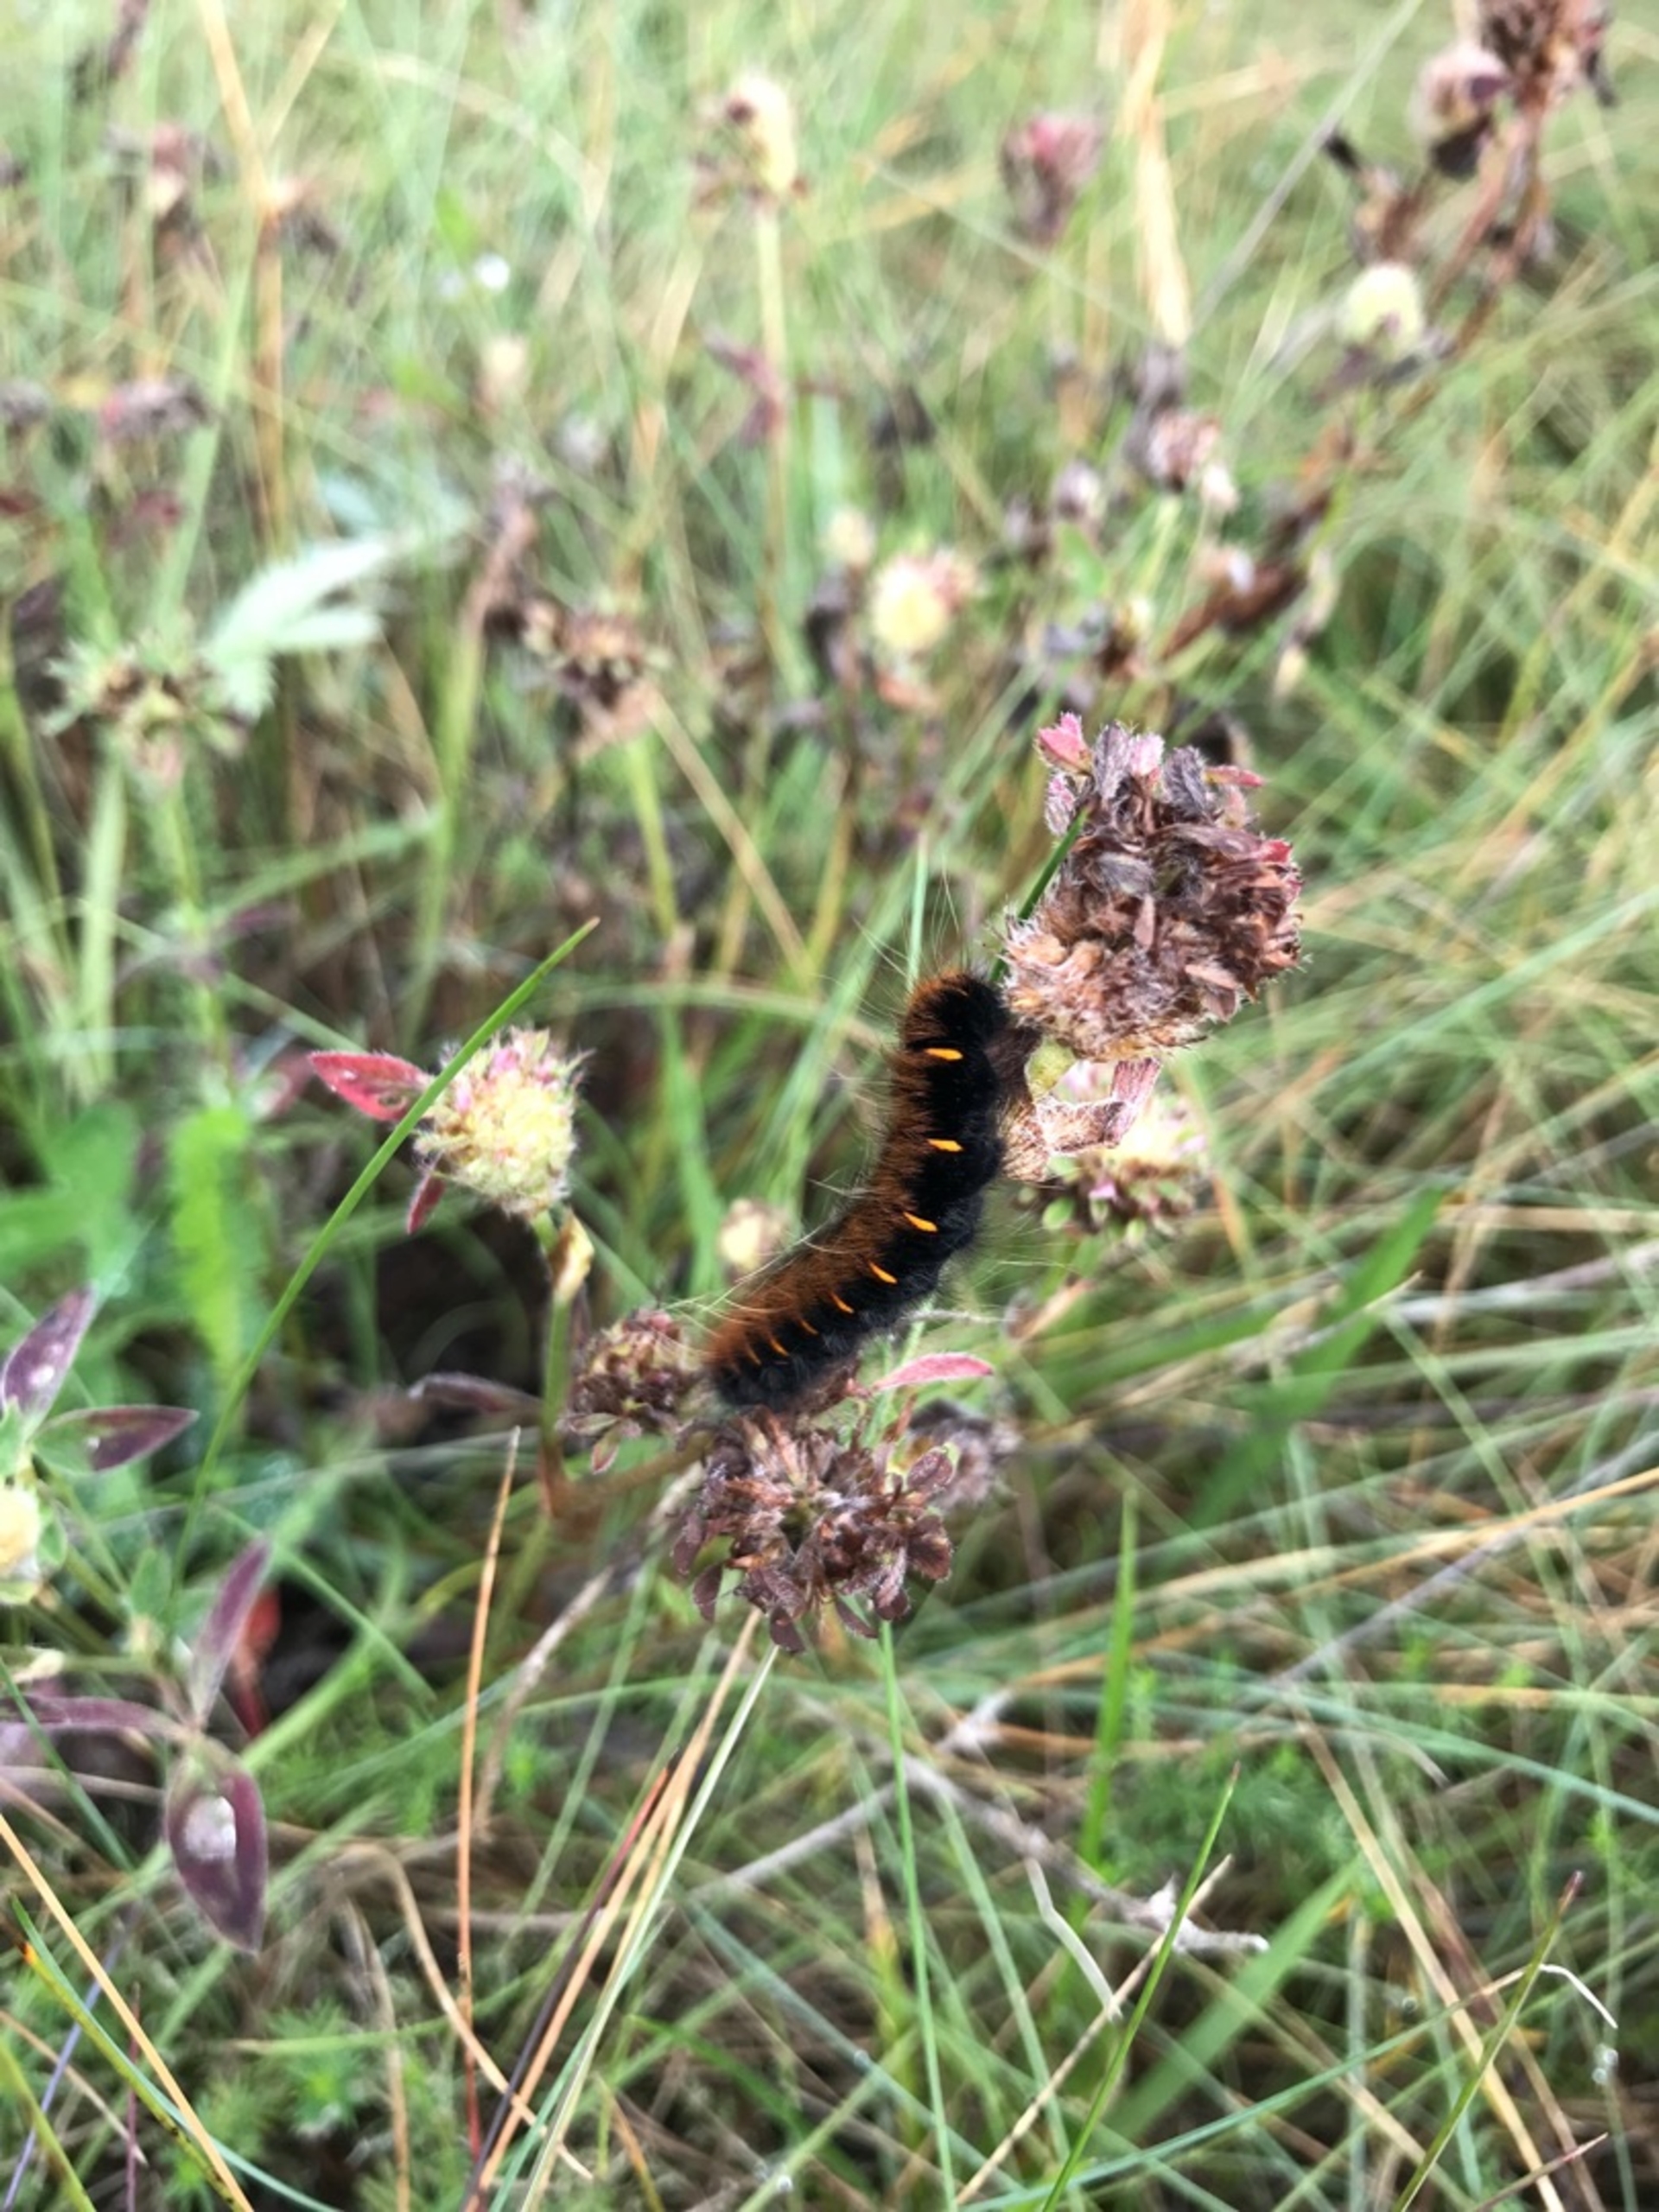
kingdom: Animalia
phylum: Arthropoda
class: Insecta
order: Lepidoptera
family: Lasiocampidae
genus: Macrothylacia
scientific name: Macrothylacia rubi
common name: Brombærspinder
